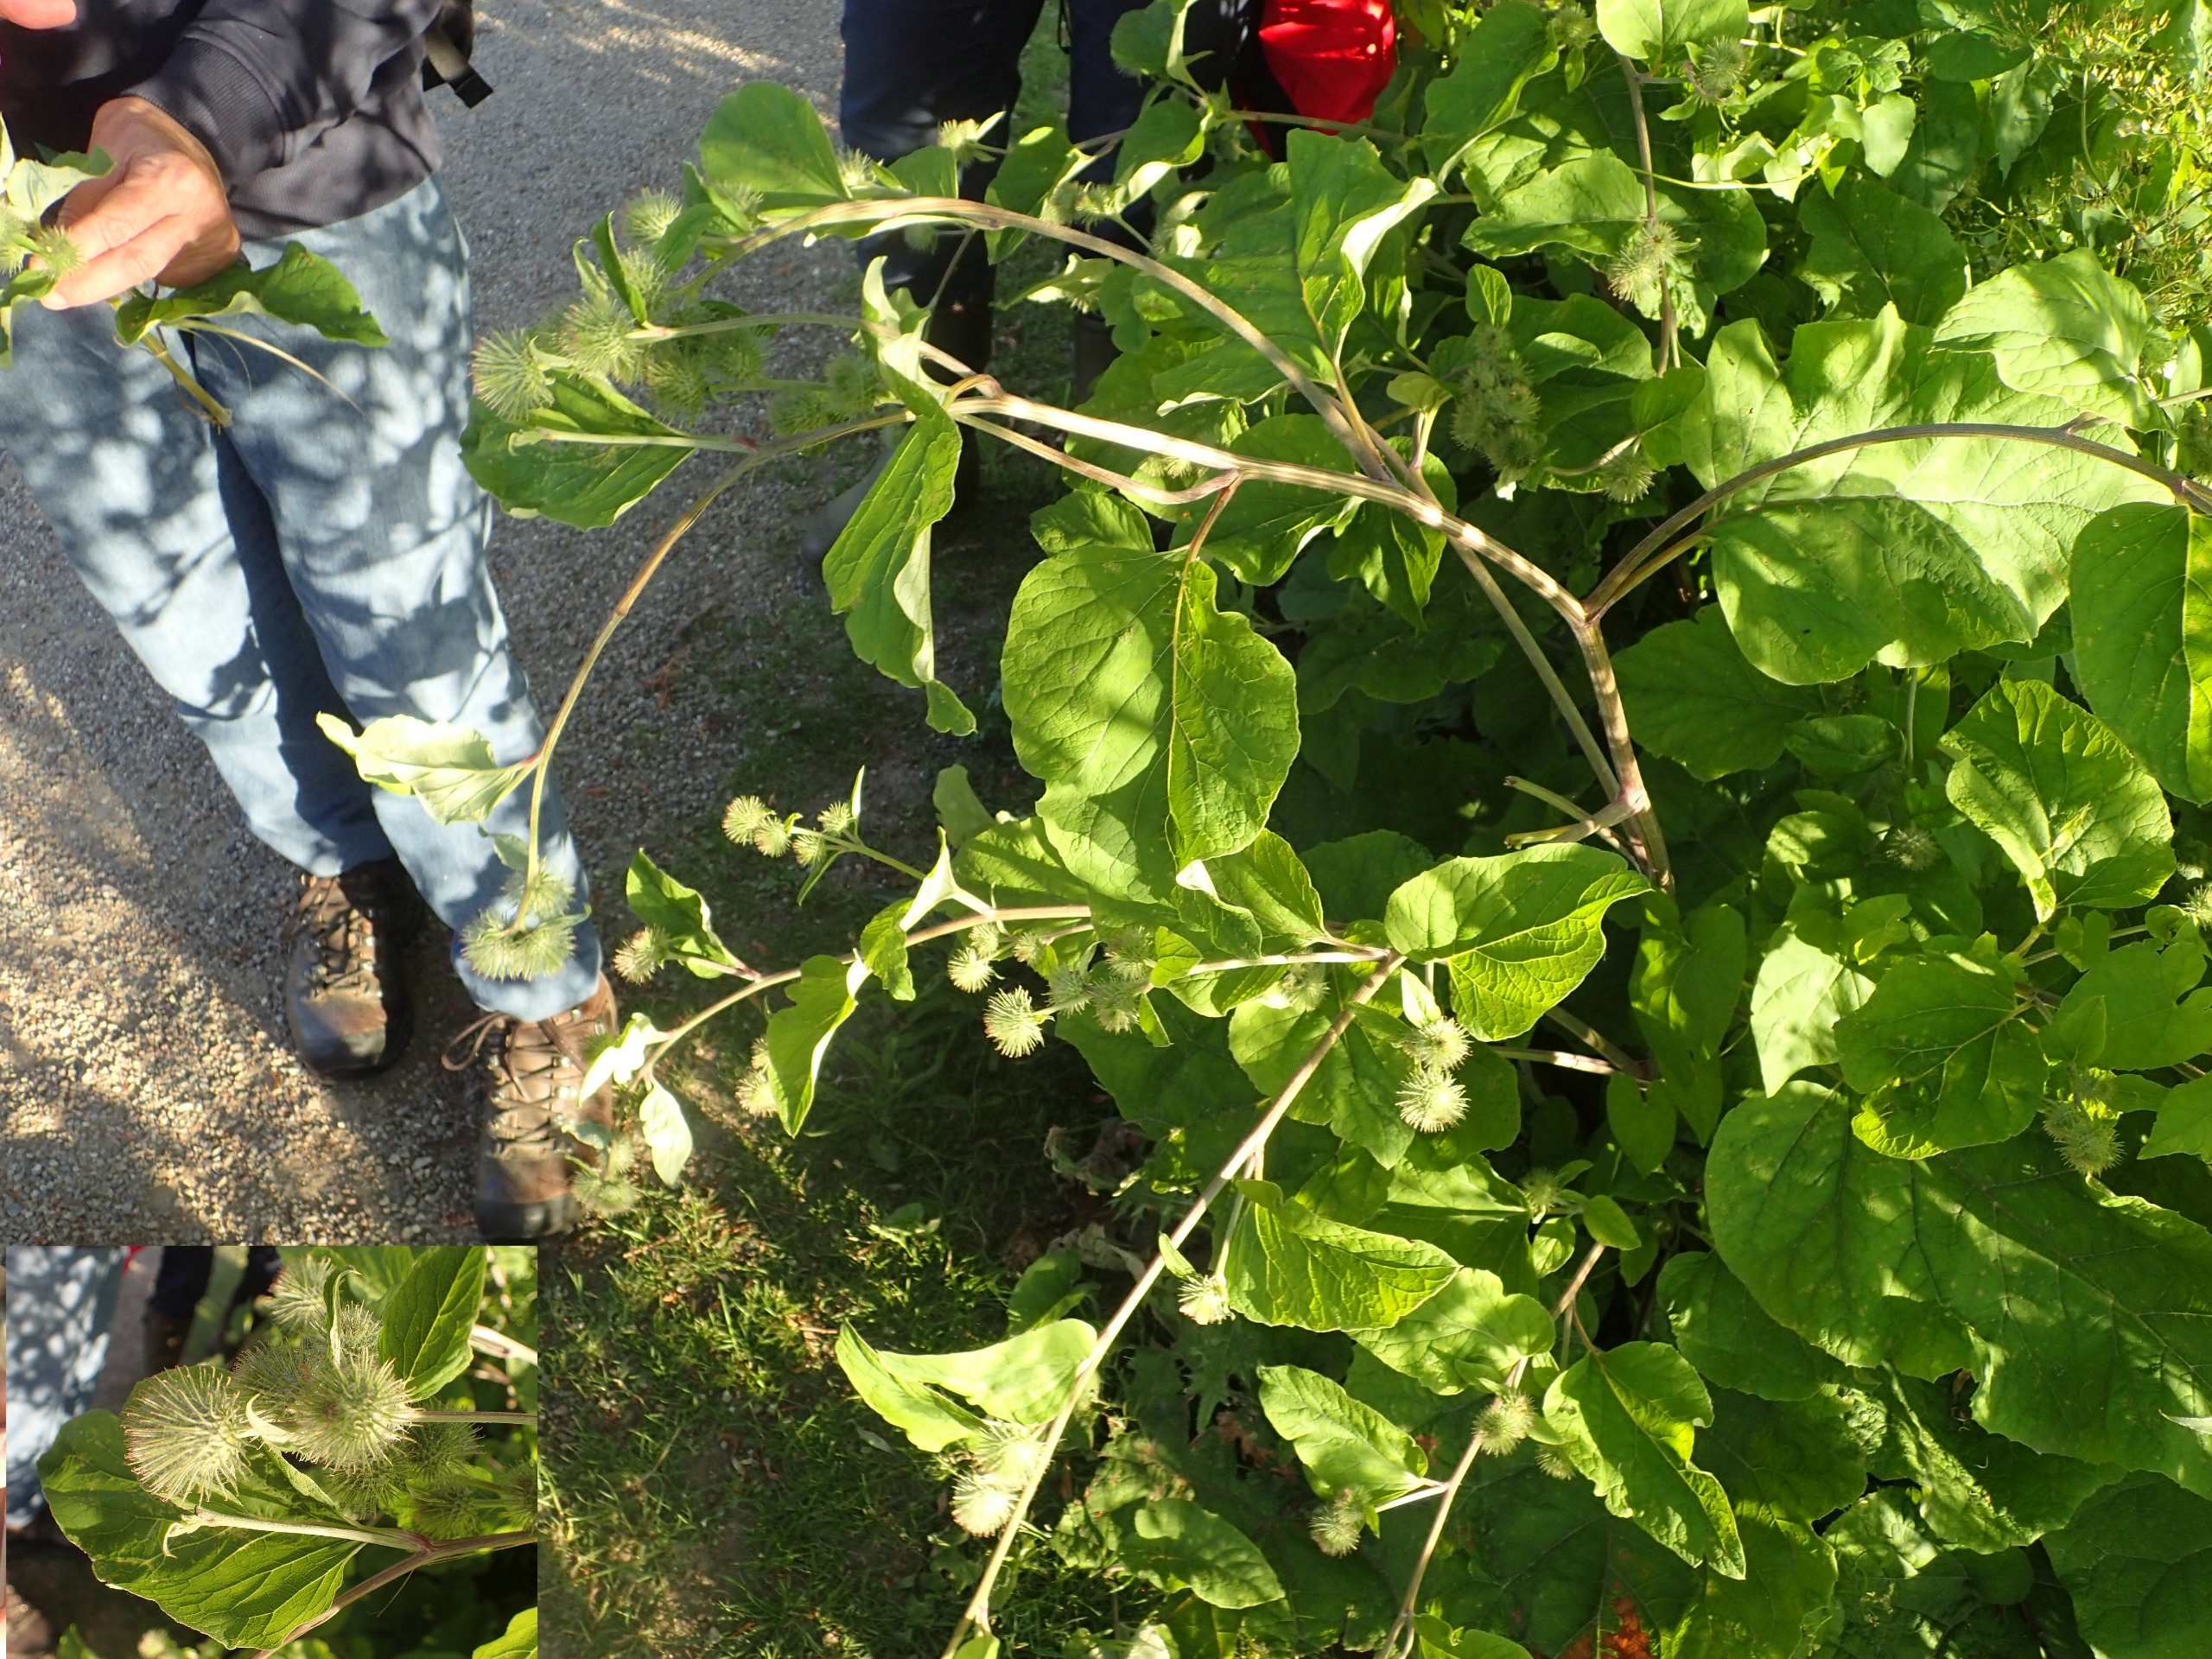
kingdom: Plantae
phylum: Tracheophyta
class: Magnoliopsida
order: Asterales
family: Asteraceae
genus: Arctium
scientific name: Arctium nemorosum
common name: Skov-burre
